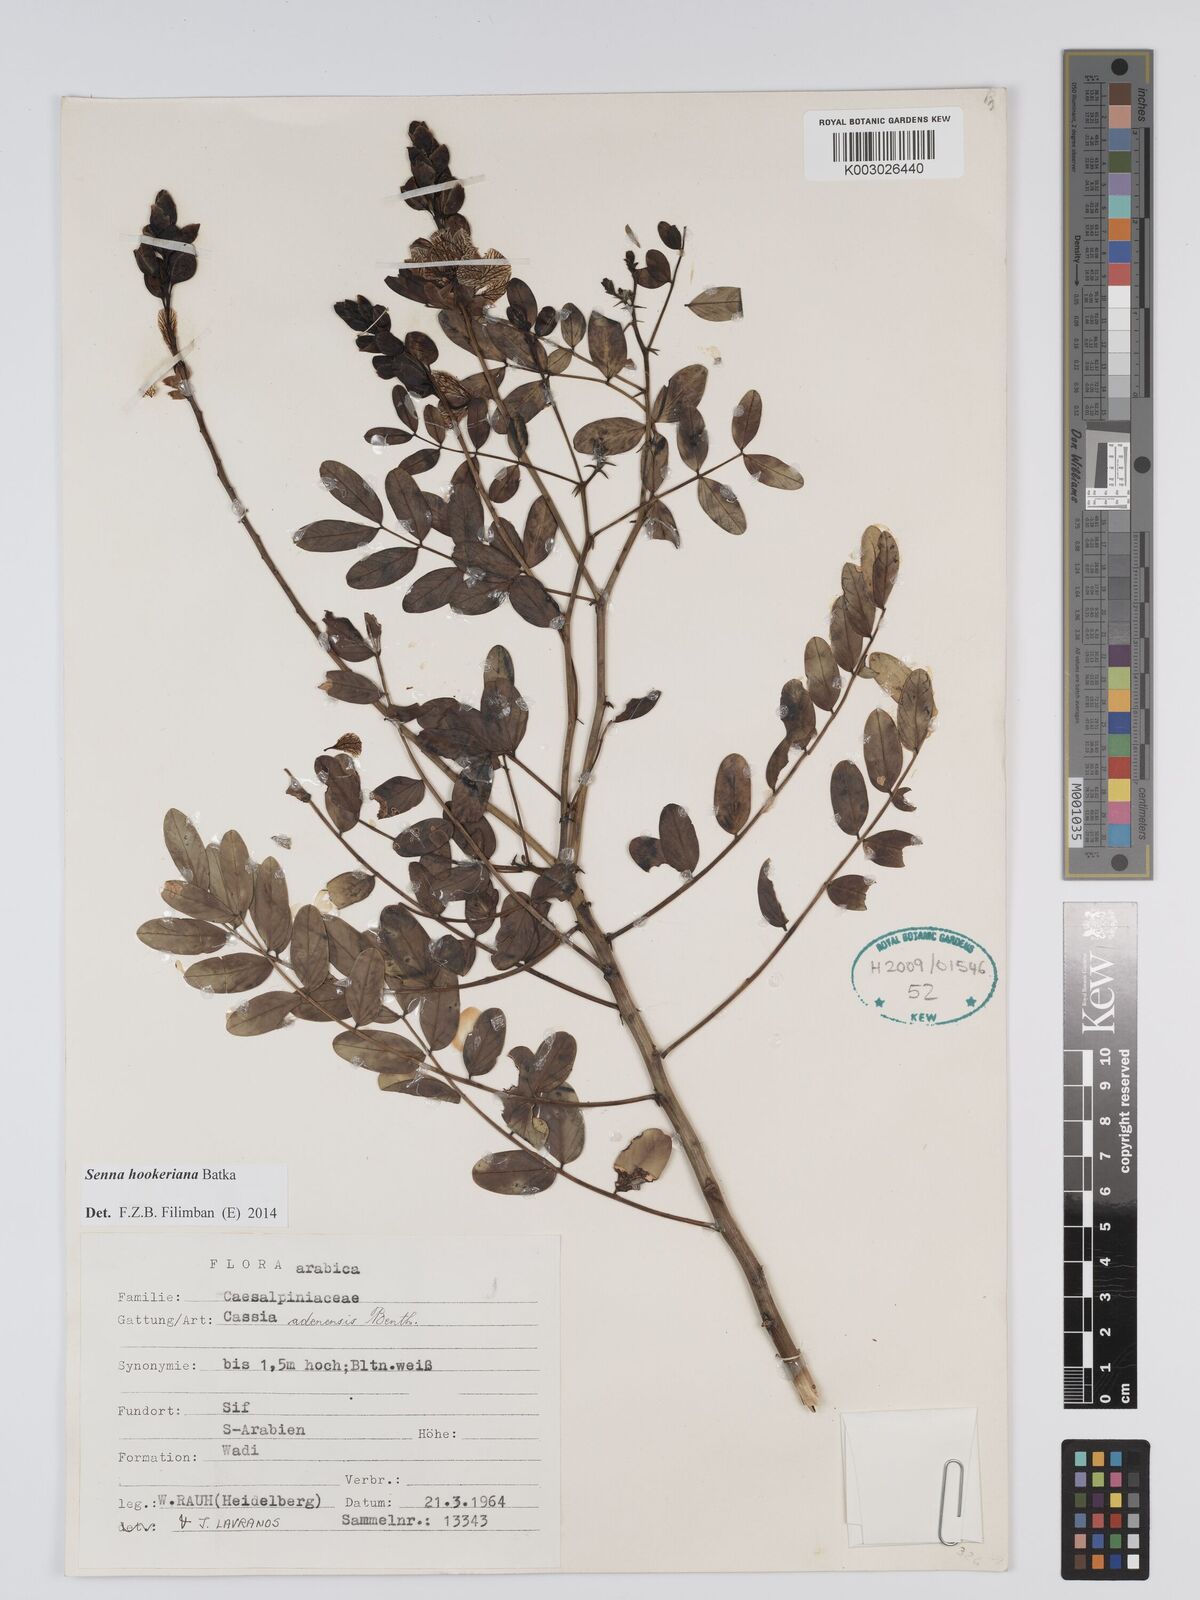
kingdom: Plantae
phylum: Tracheophyta
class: Magnoliopsida
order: Fabales
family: Fabaceae
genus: Senna
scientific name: Senna birostris
